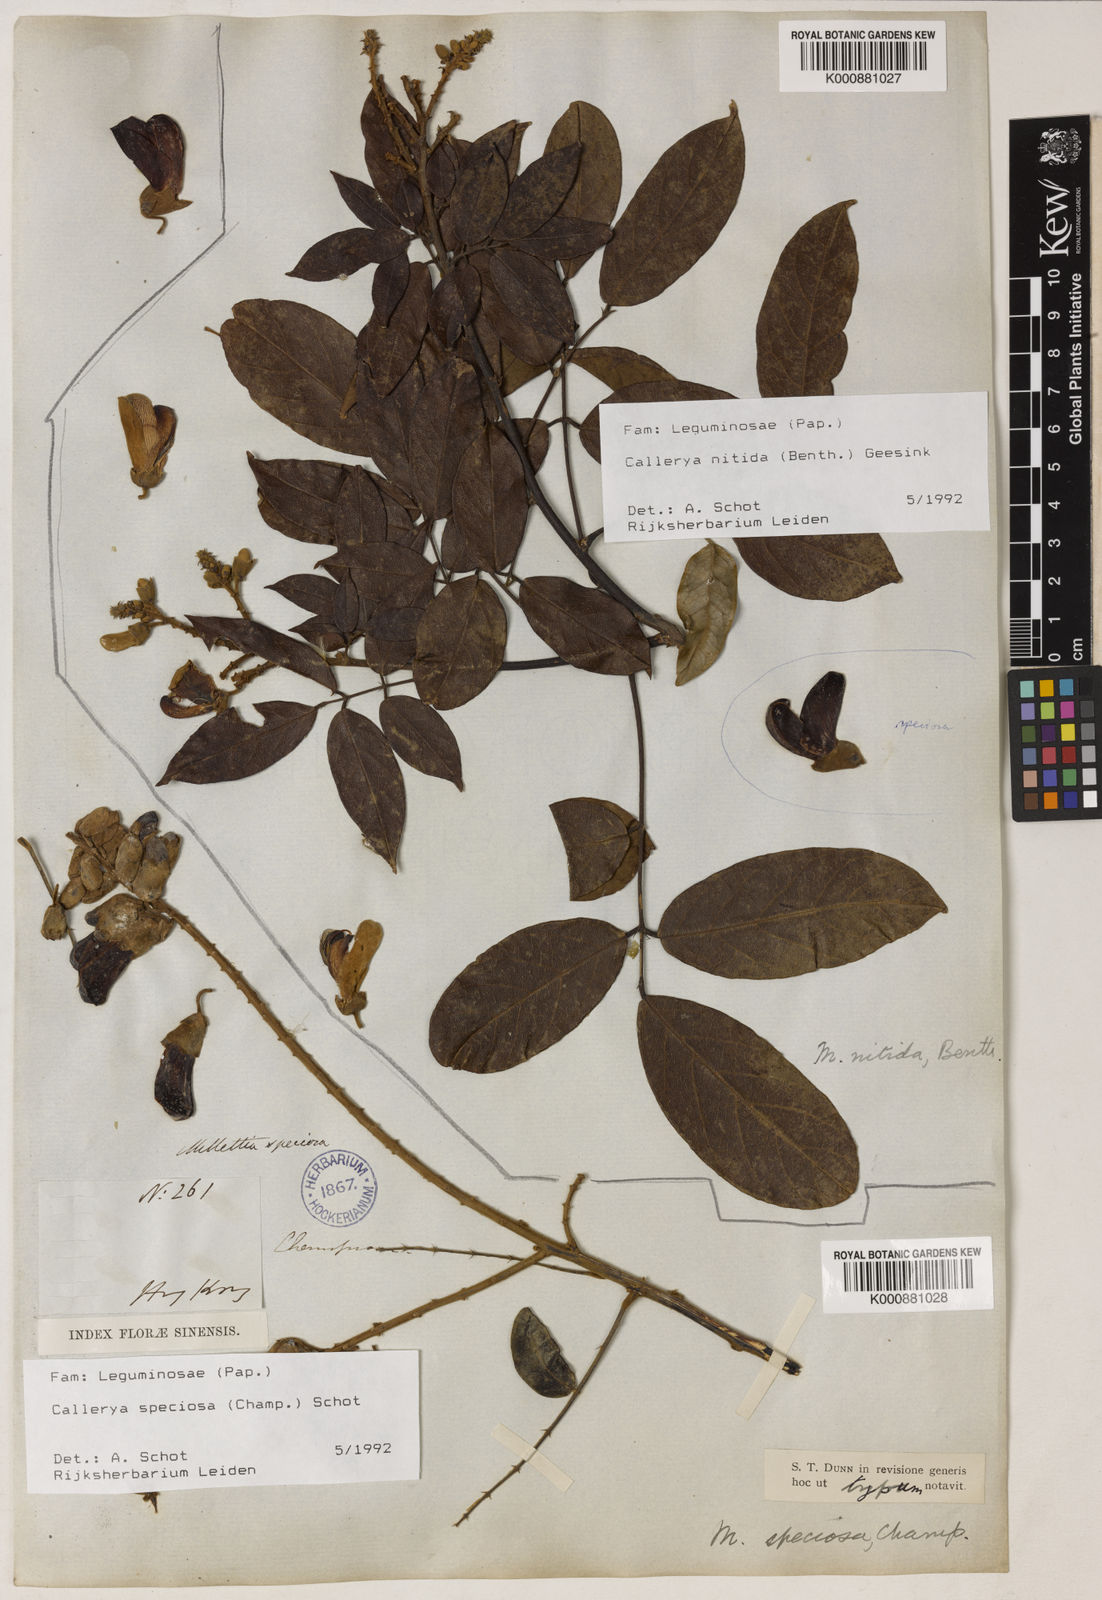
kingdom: Plantae
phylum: Tracheophyta
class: Magnoliopsida
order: Fabales
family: Fabaceae
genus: Nanhaia
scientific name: Nanhaia speciosa
